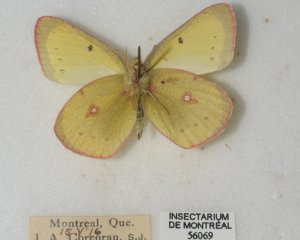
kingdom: Animalia
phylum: Arthropoda
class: Insecta
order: Lepidoptera
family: Pieridae
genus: Colias
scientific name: Colias philodice
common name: Clouded Sulphur
